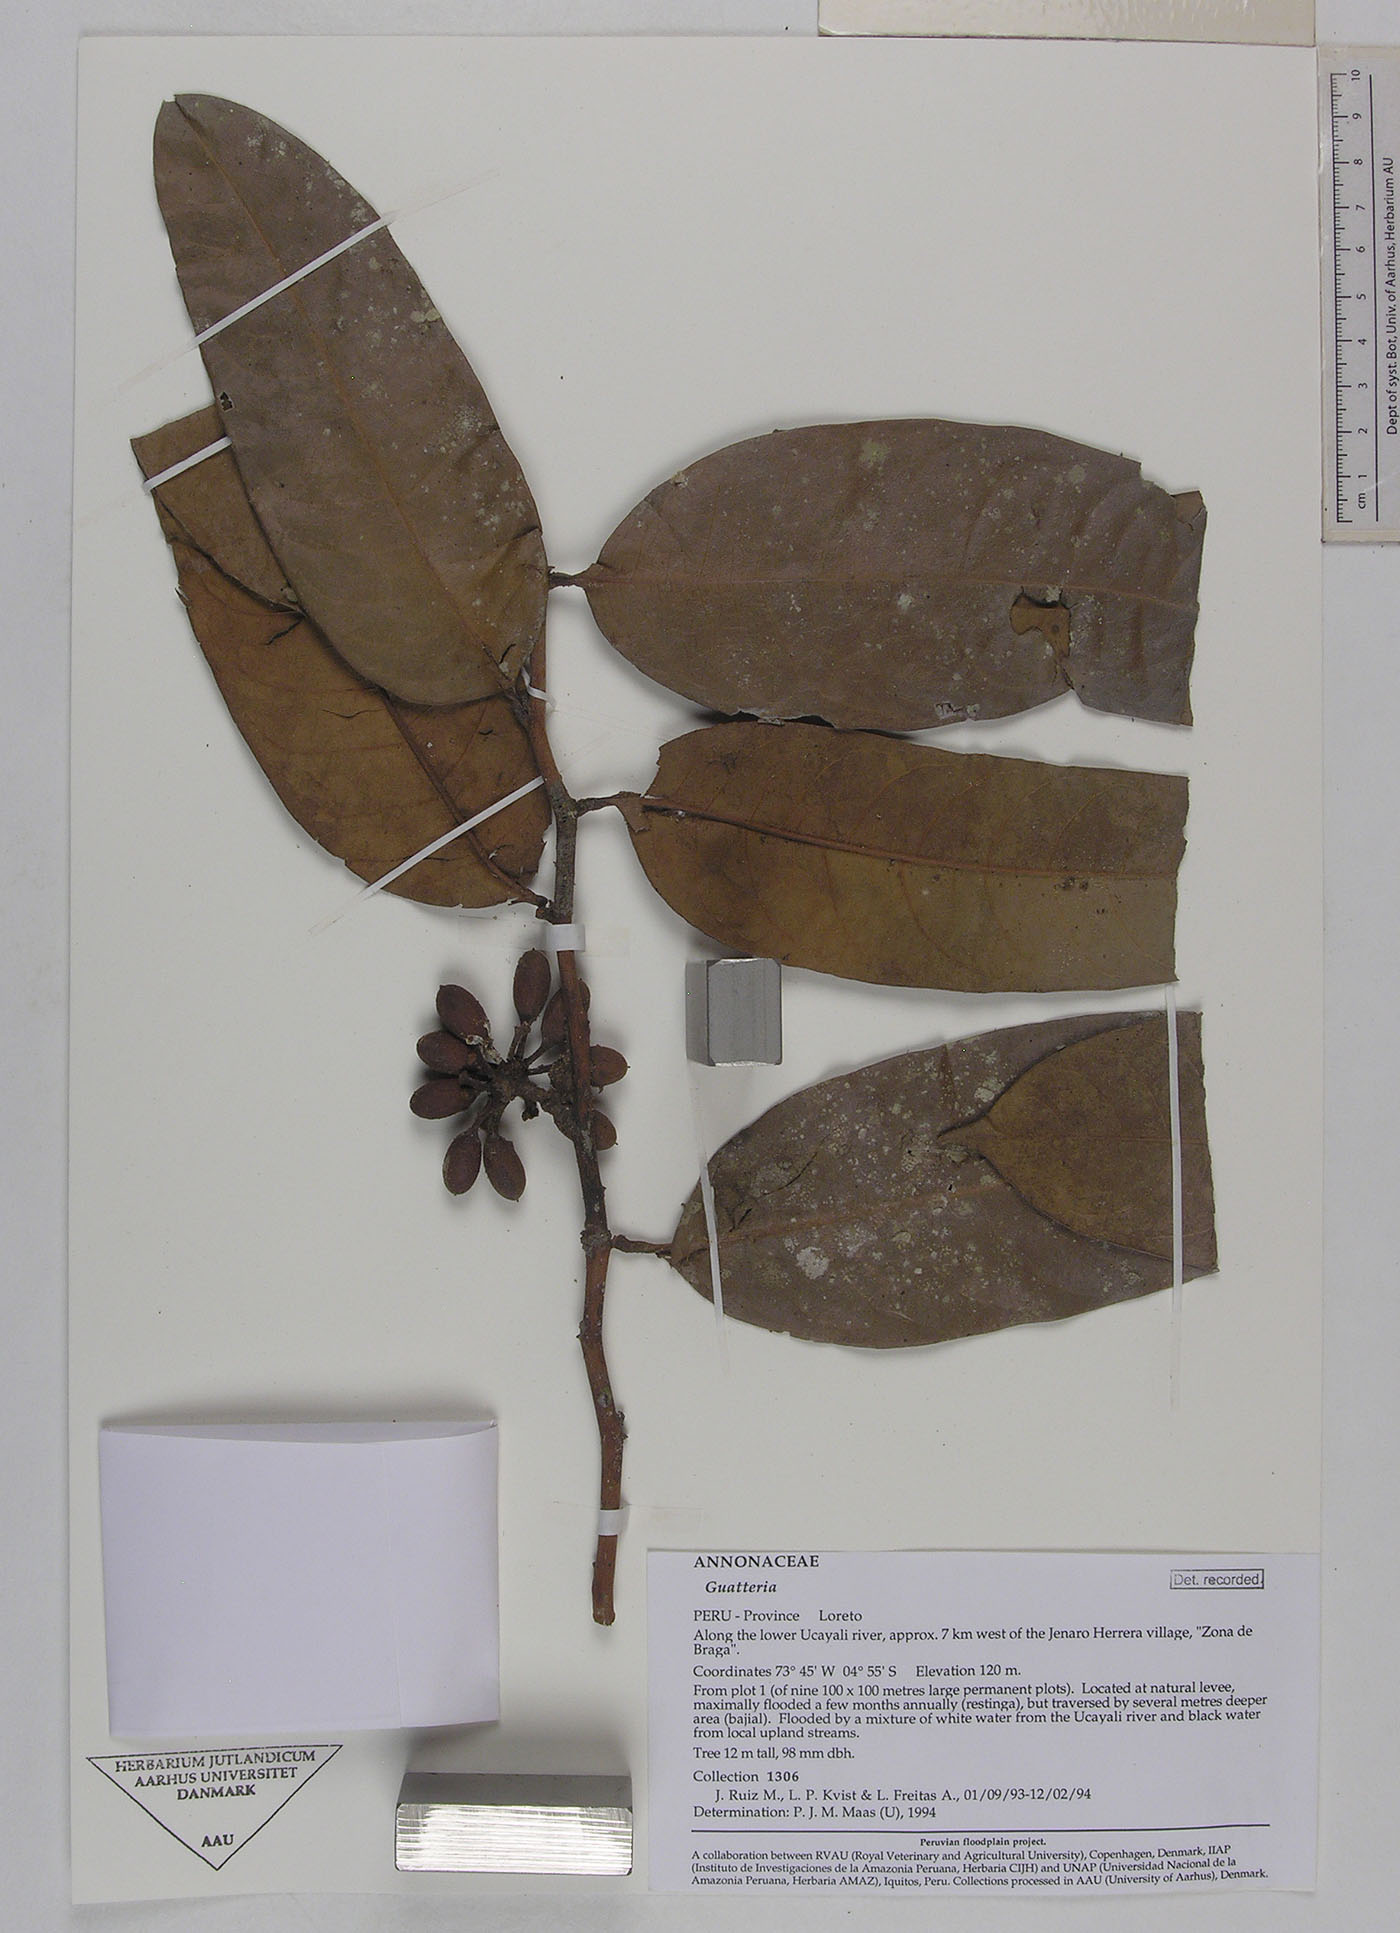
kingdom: Plantae
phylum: Tracheophyta
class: Magnoliopsida
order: Magnoliales
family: Annonaceae
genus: Guatteria
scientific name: Guatteria blepharophylla
